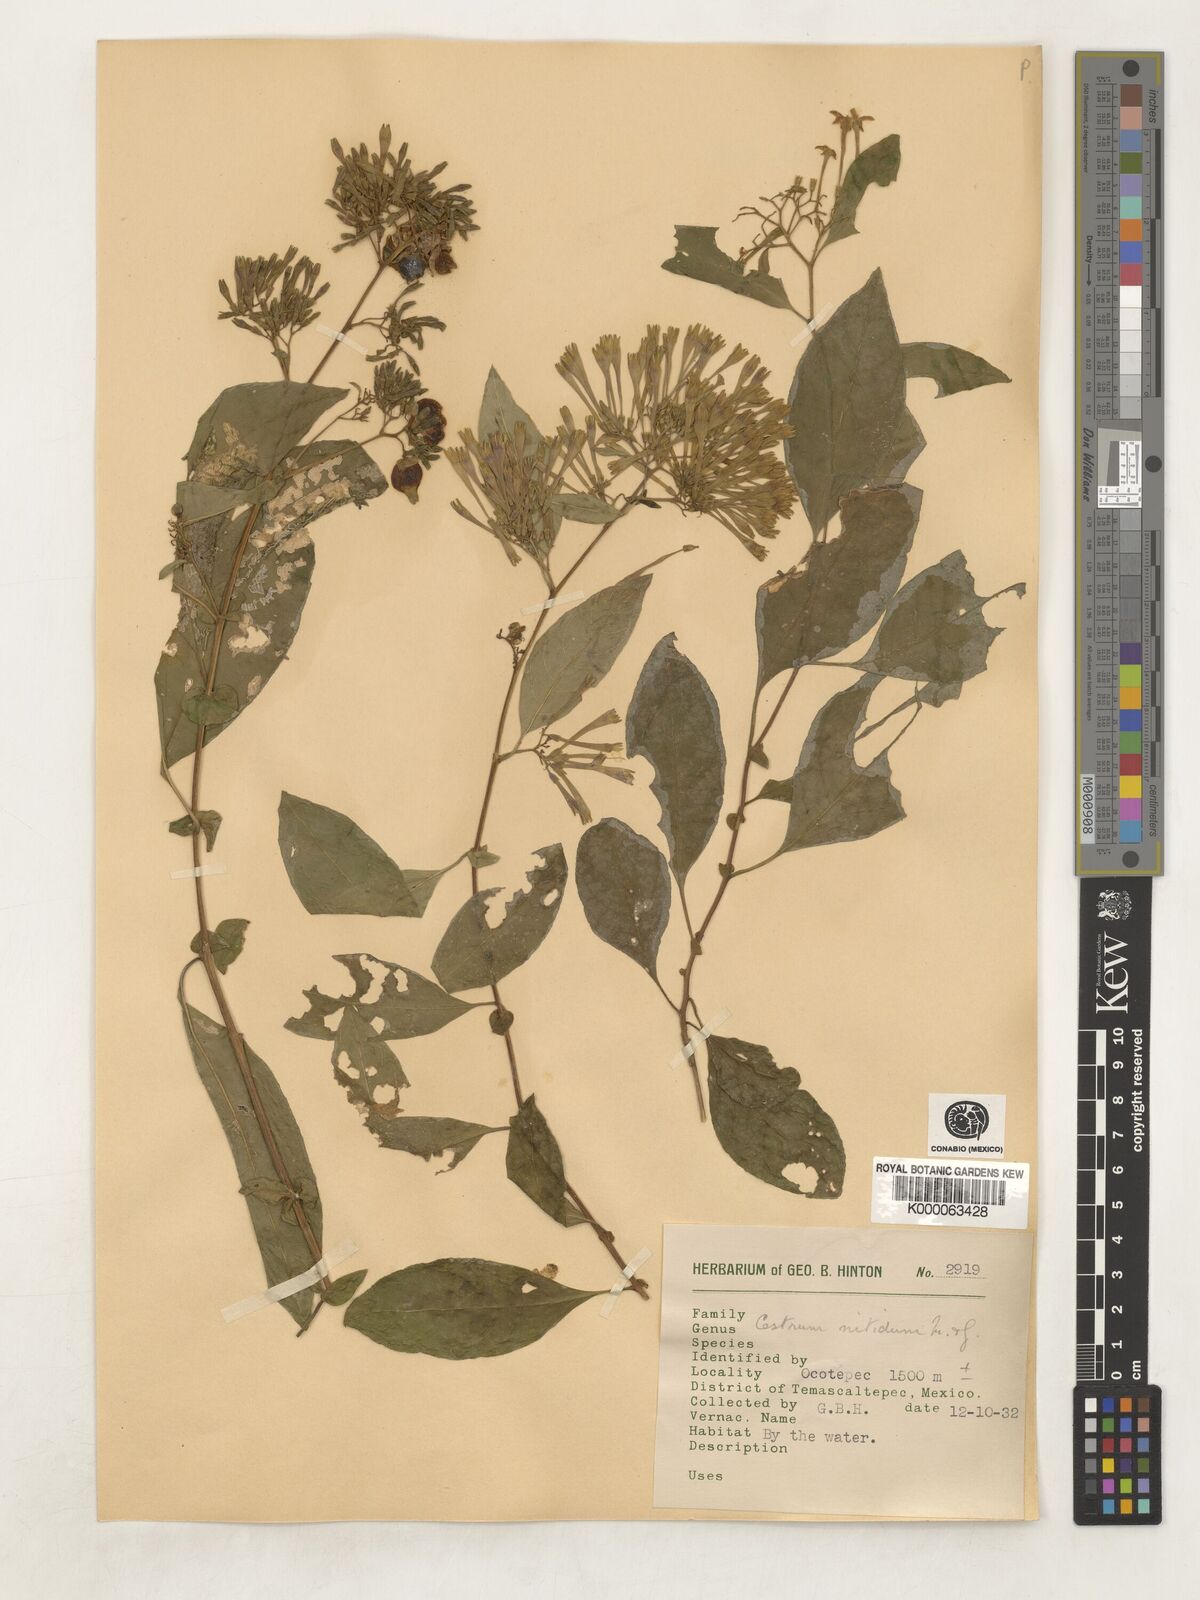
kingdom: Plantae
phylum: Tracheophyta
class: Magnoliopsida
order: Solanales
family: Solanaceae
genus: Cestrum
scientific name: Cestrum nitidum
